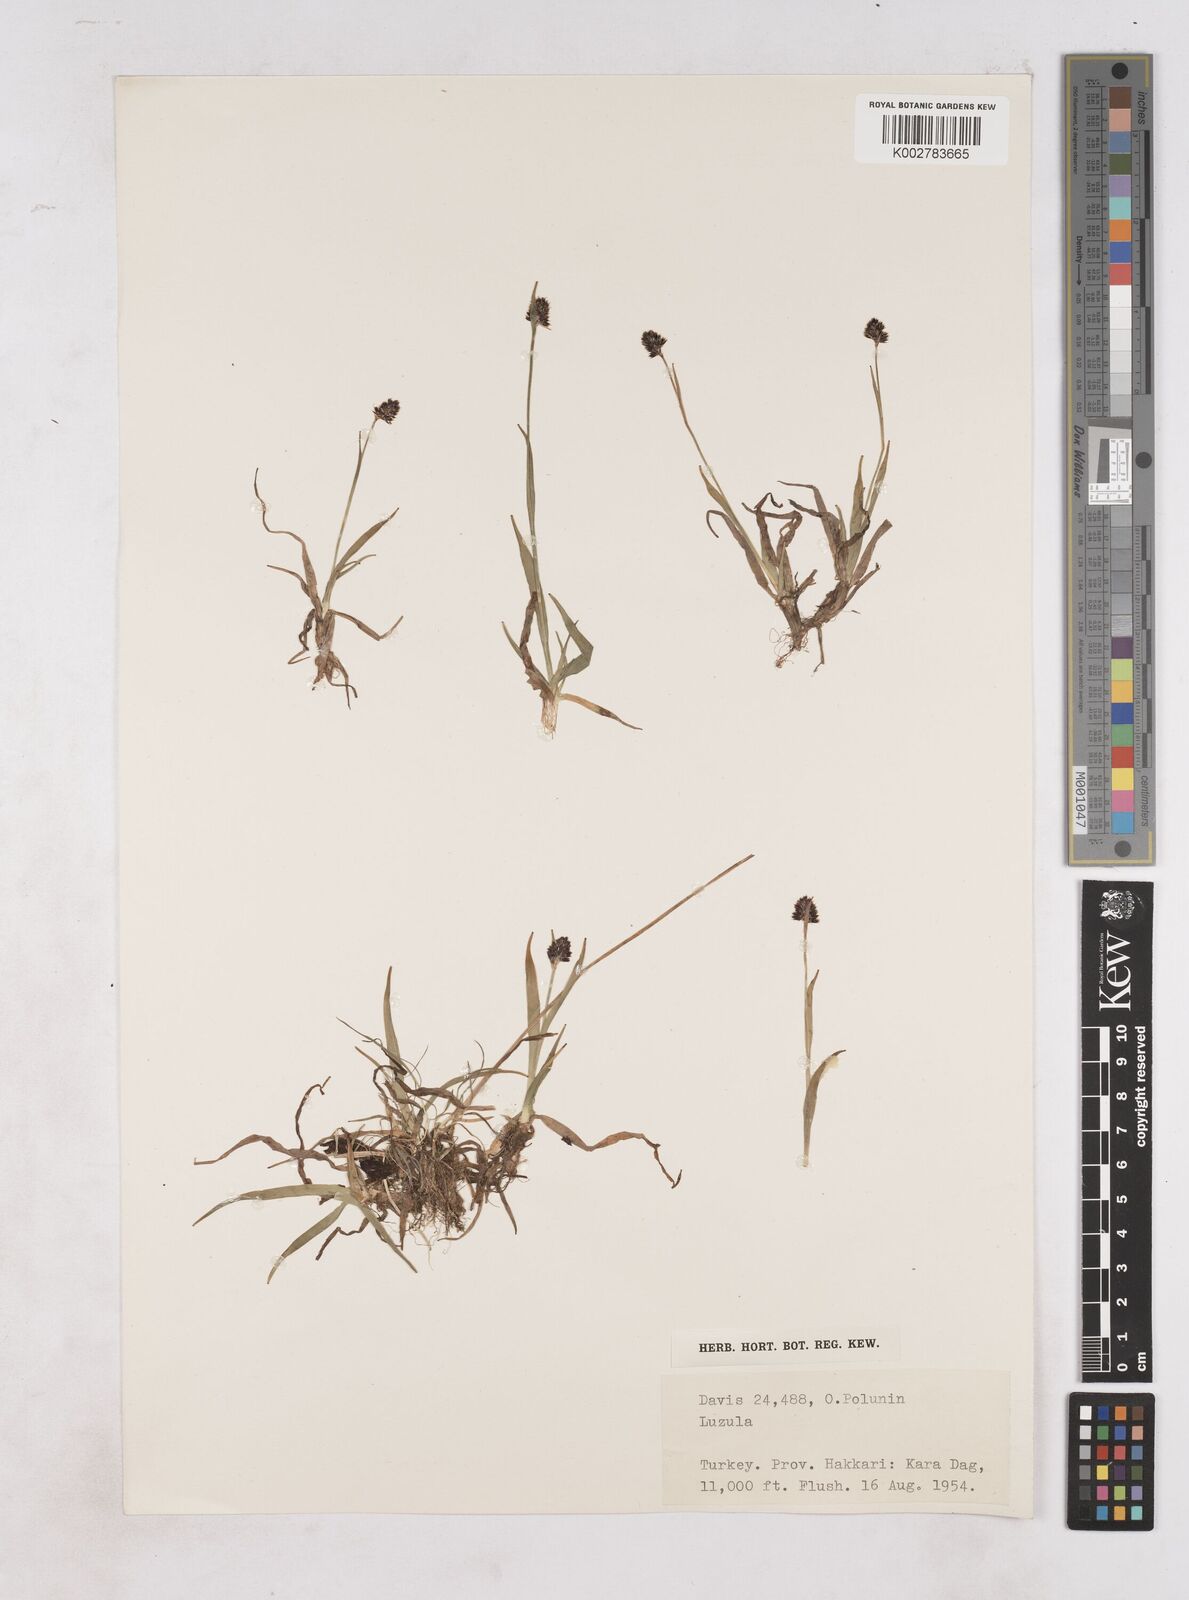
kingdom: Plantae
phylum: Tracheophyta
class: Liliopsida
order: Poales
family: Juncaceae
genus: Luzula
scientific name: Luzula campestris
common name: Field wood-rush
